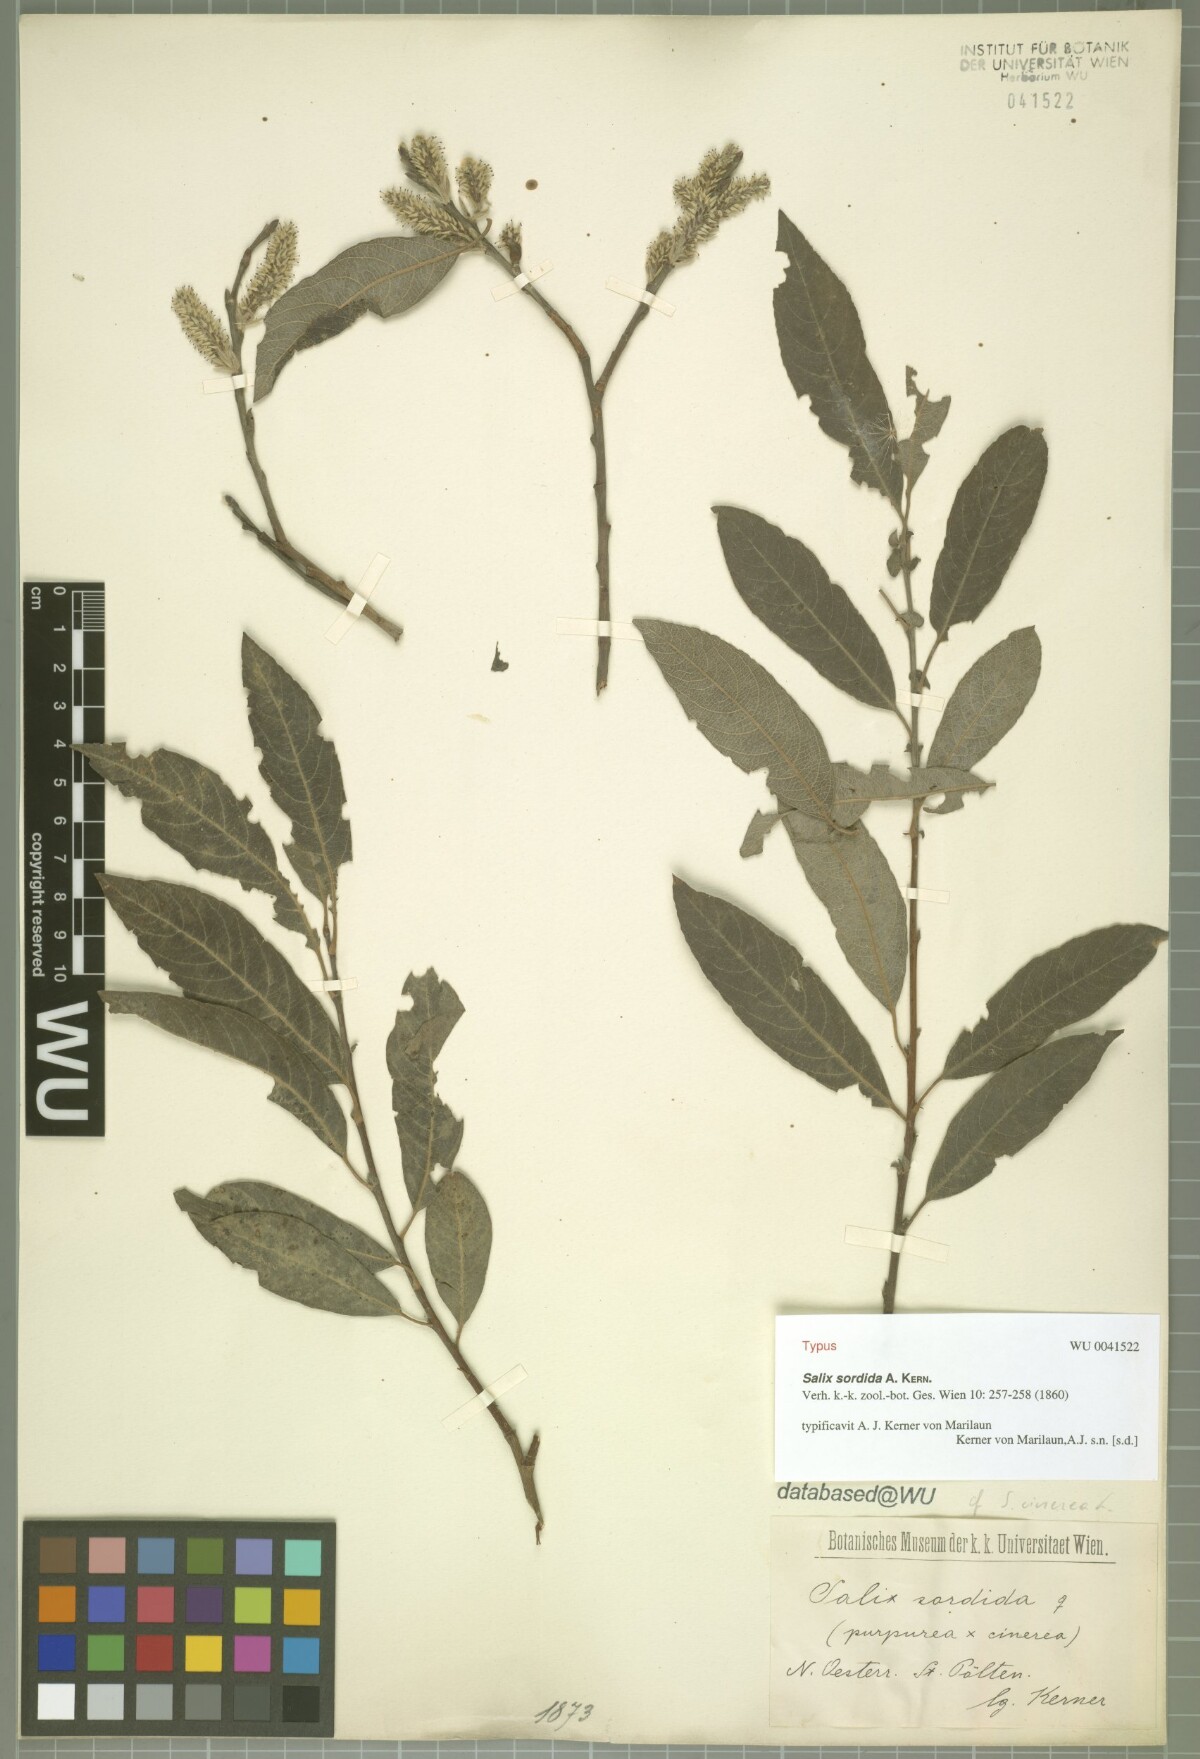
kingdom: Plantae
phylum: Tracheophyta
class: Magnoliopsida
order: Malpighiales
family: Salicaceae
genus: Salix
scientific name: Salix sordida
